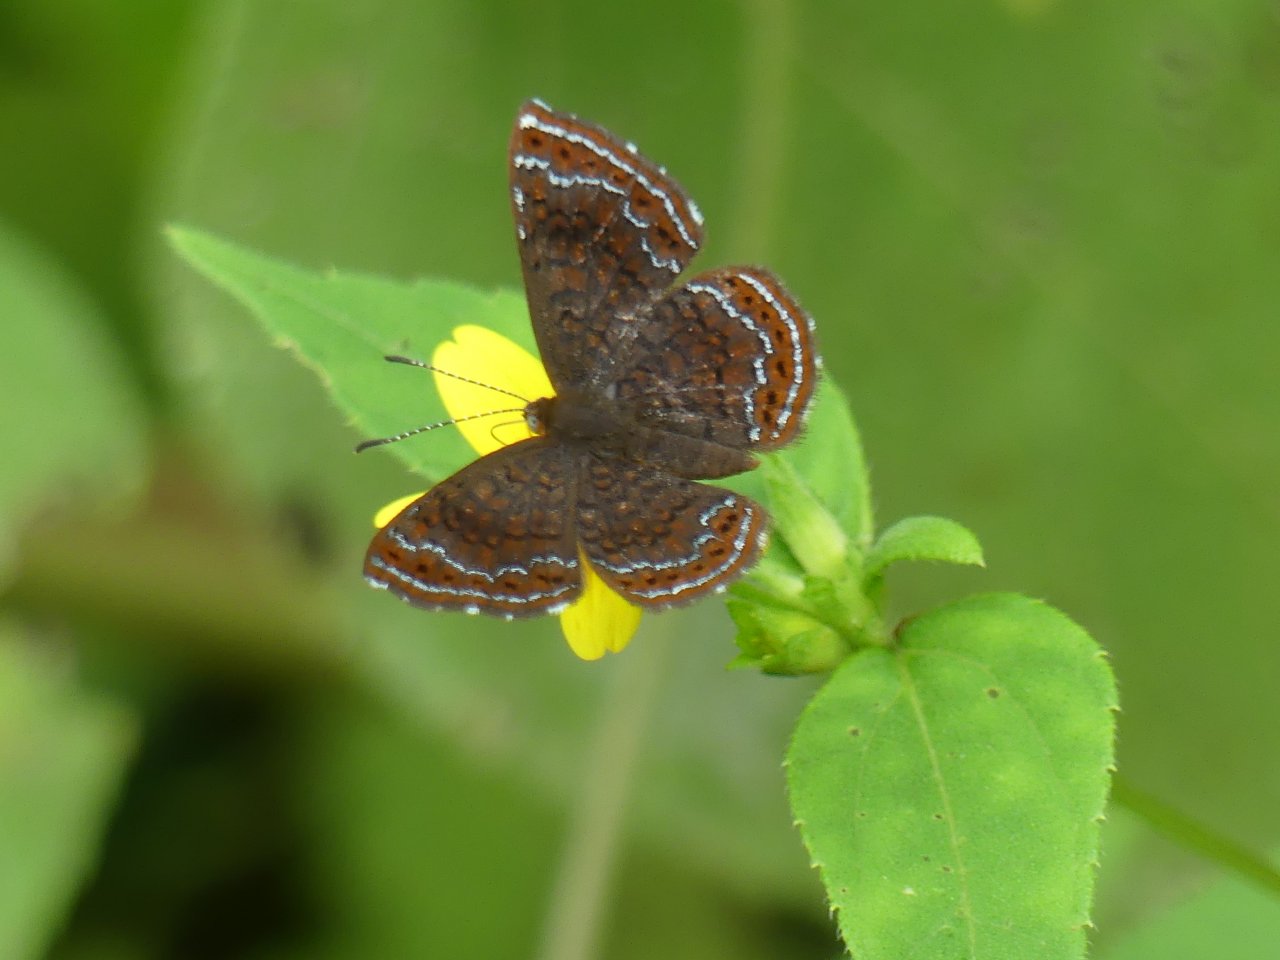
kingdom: Animalia
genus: Calephelis
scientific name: Calephelis schausi
